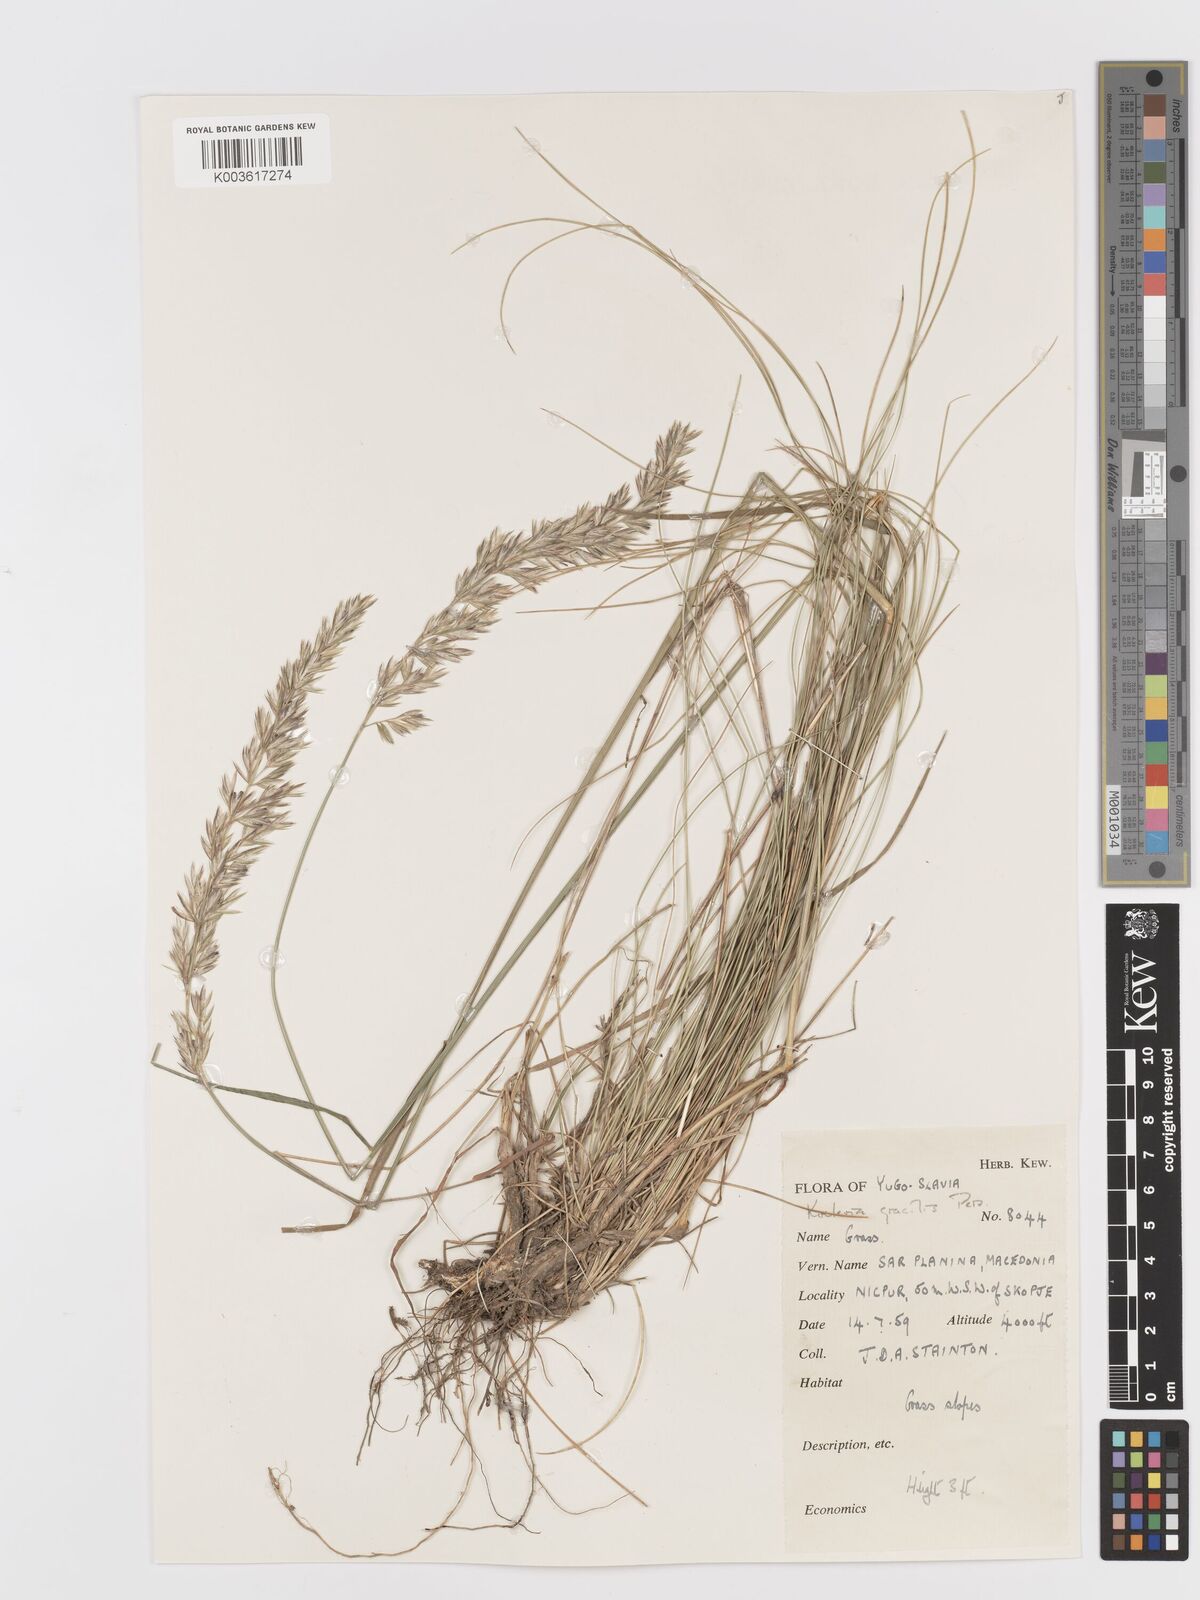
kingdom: Plantae
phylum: Tracheophyta
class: Liliopsida
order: Poales
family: Poaceae
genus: Koeleria
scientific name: Koeleria macrantha
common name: Crested hair-grass
